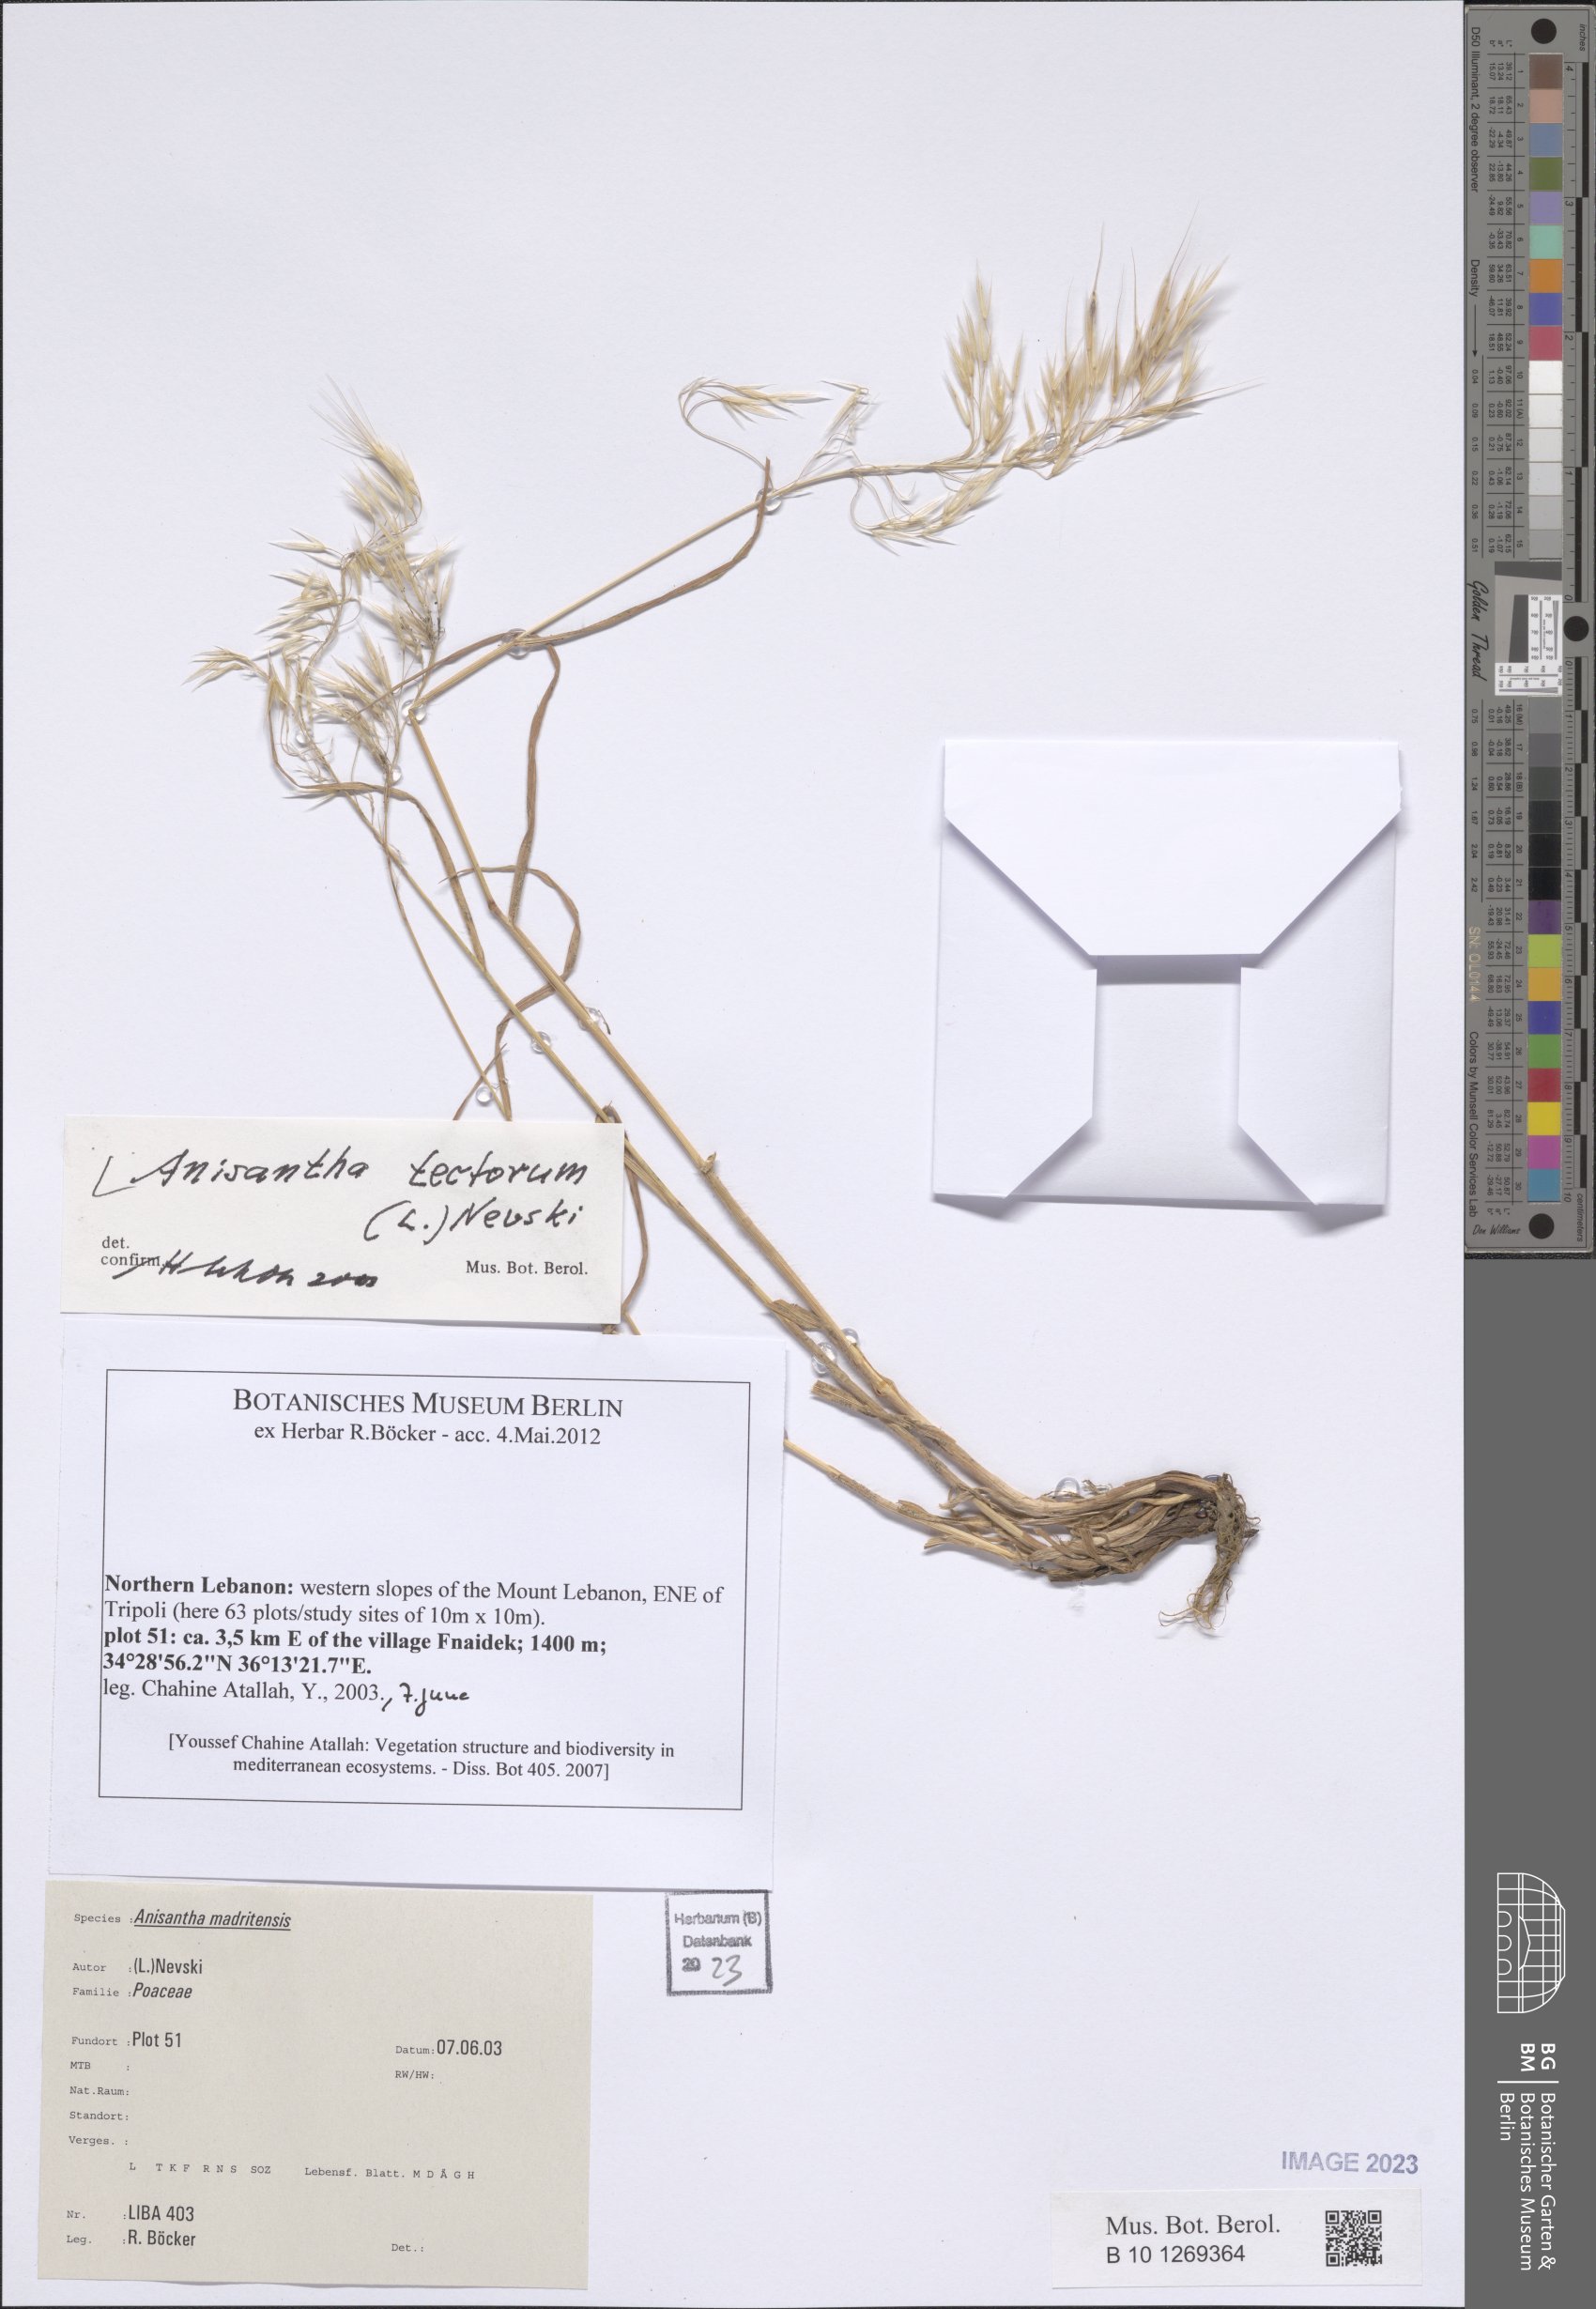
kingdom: Plantae
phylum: Tracheophyta
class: Liliopsida
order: Poales
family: Poaceae
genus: Bromus
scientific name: Bromus tectorum
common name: Cheatgrass
